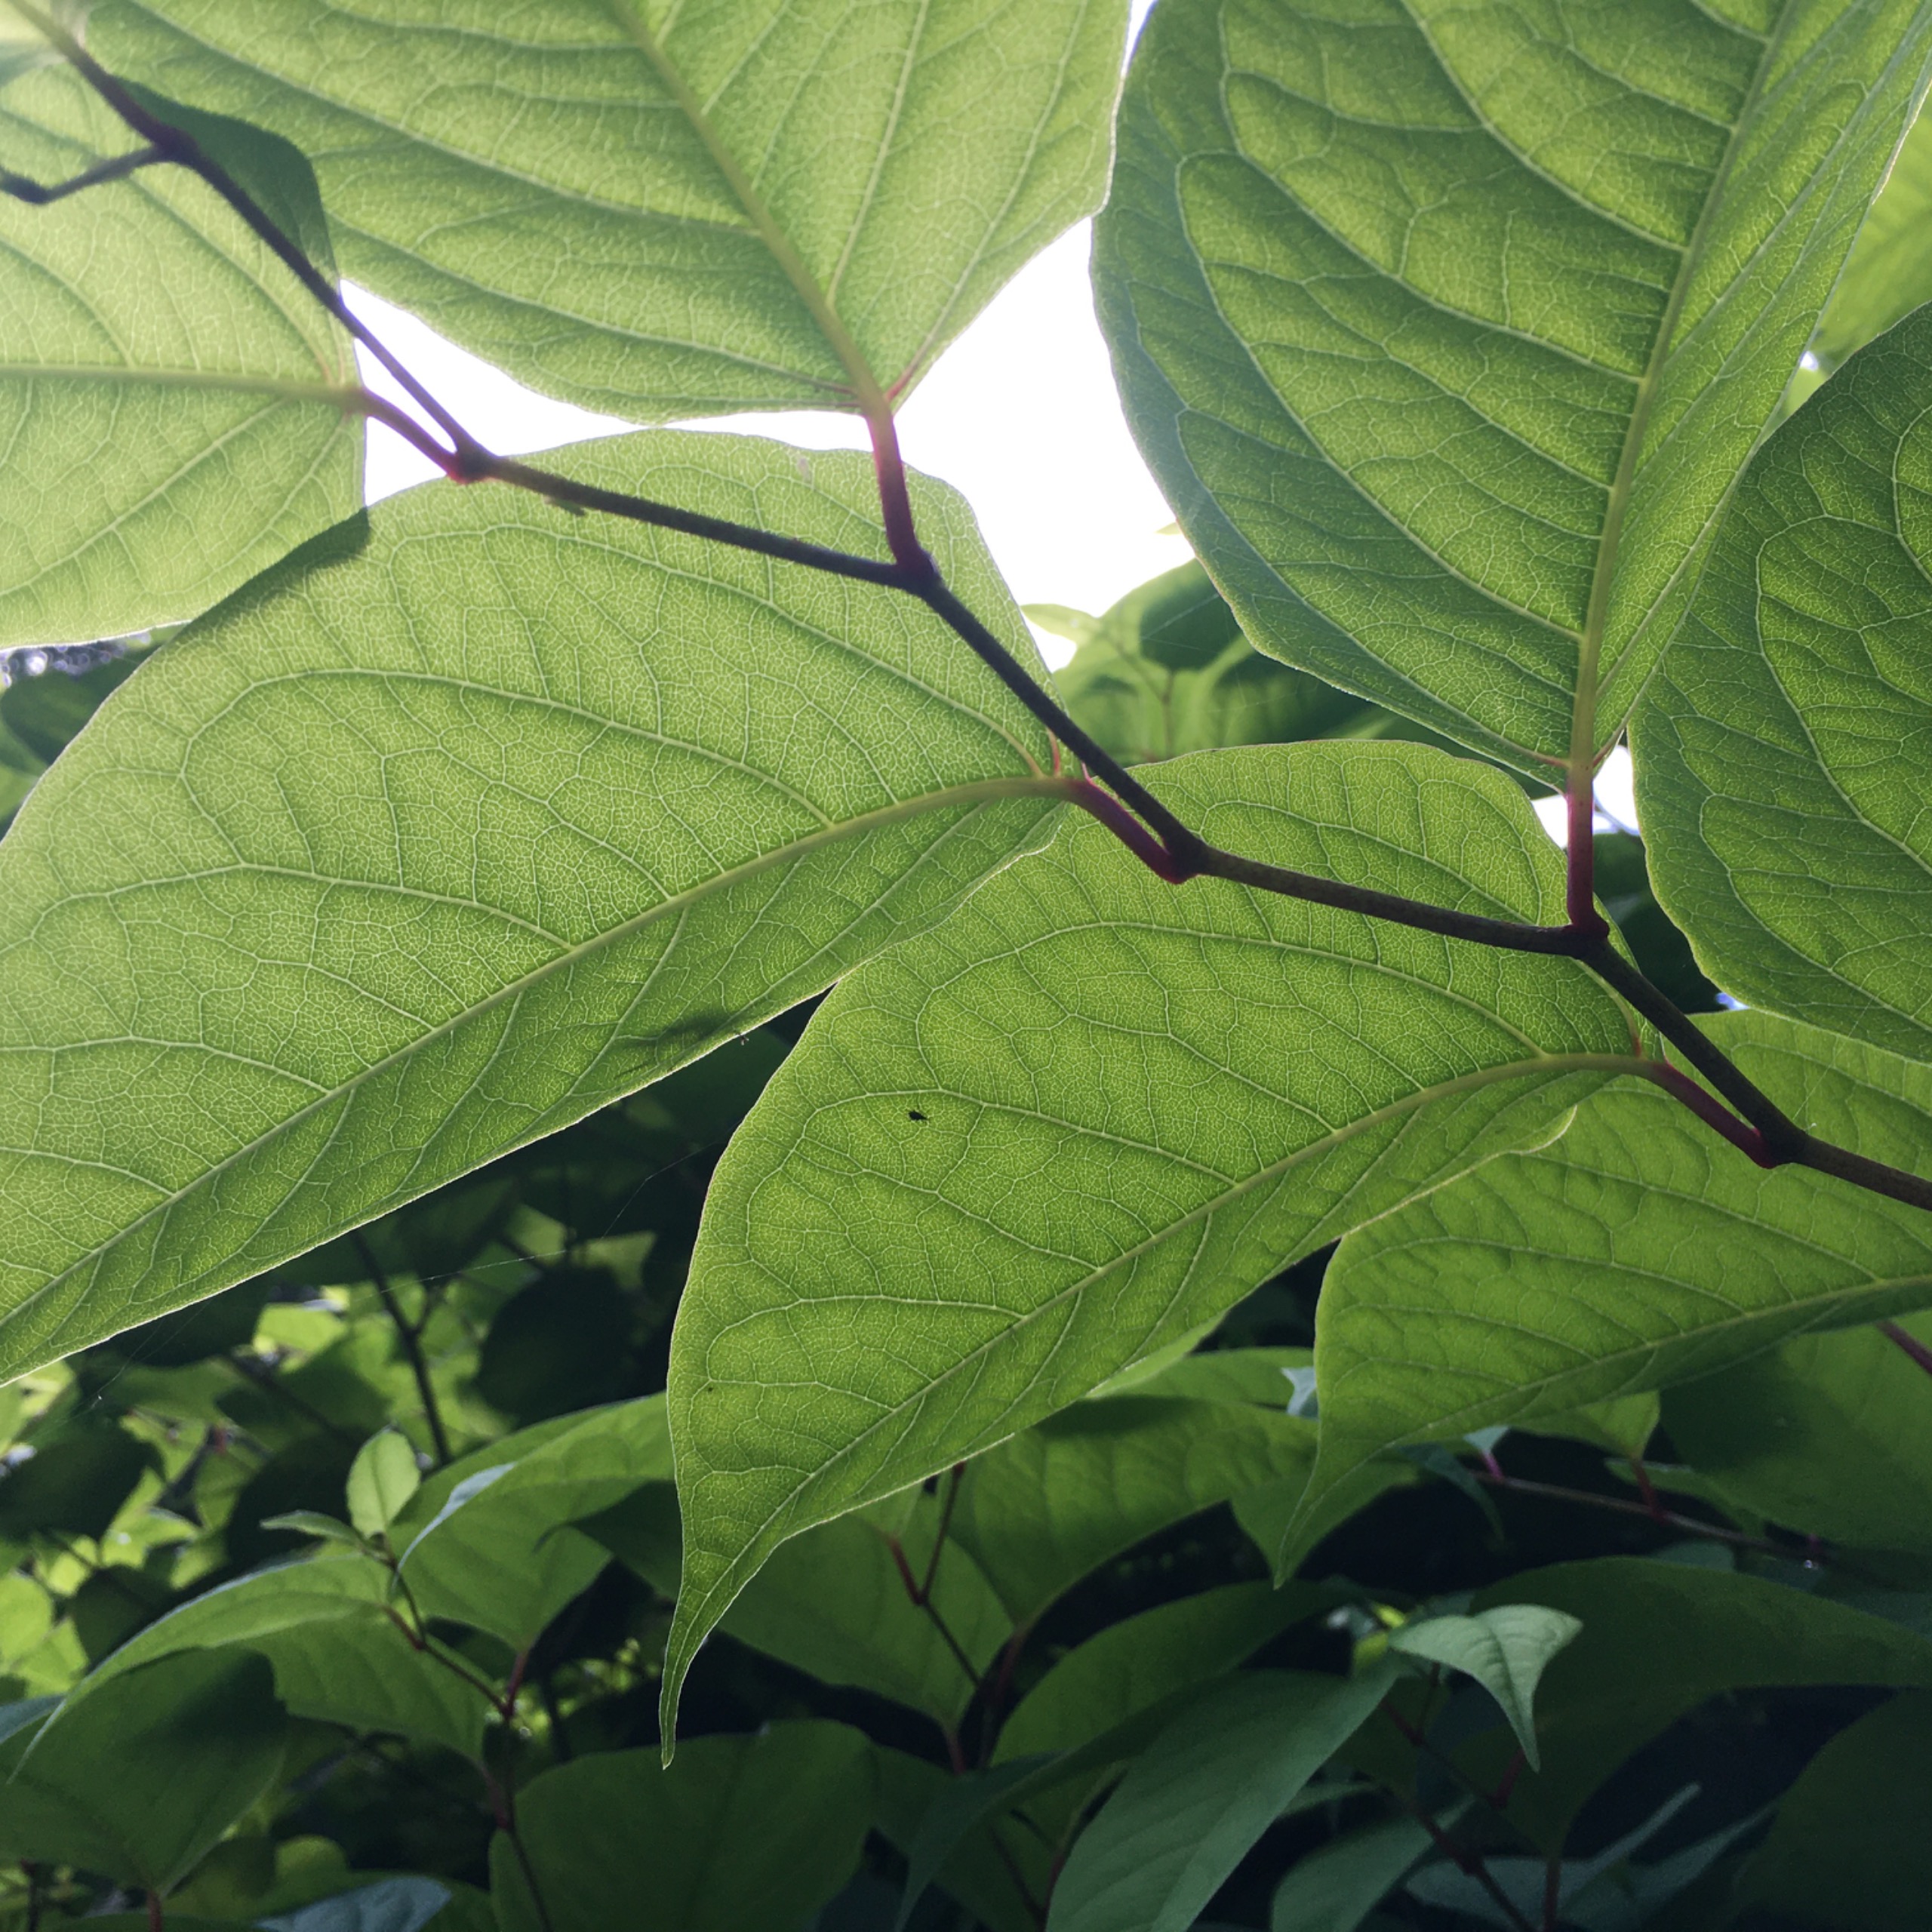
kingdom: Plantae
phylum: Tracheophyta
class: Magnoliopsida
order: Caryophyllales
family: Polygonaceae
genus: Reynoutria
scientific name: Reynoutria japonica
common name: Japan-pileurt
